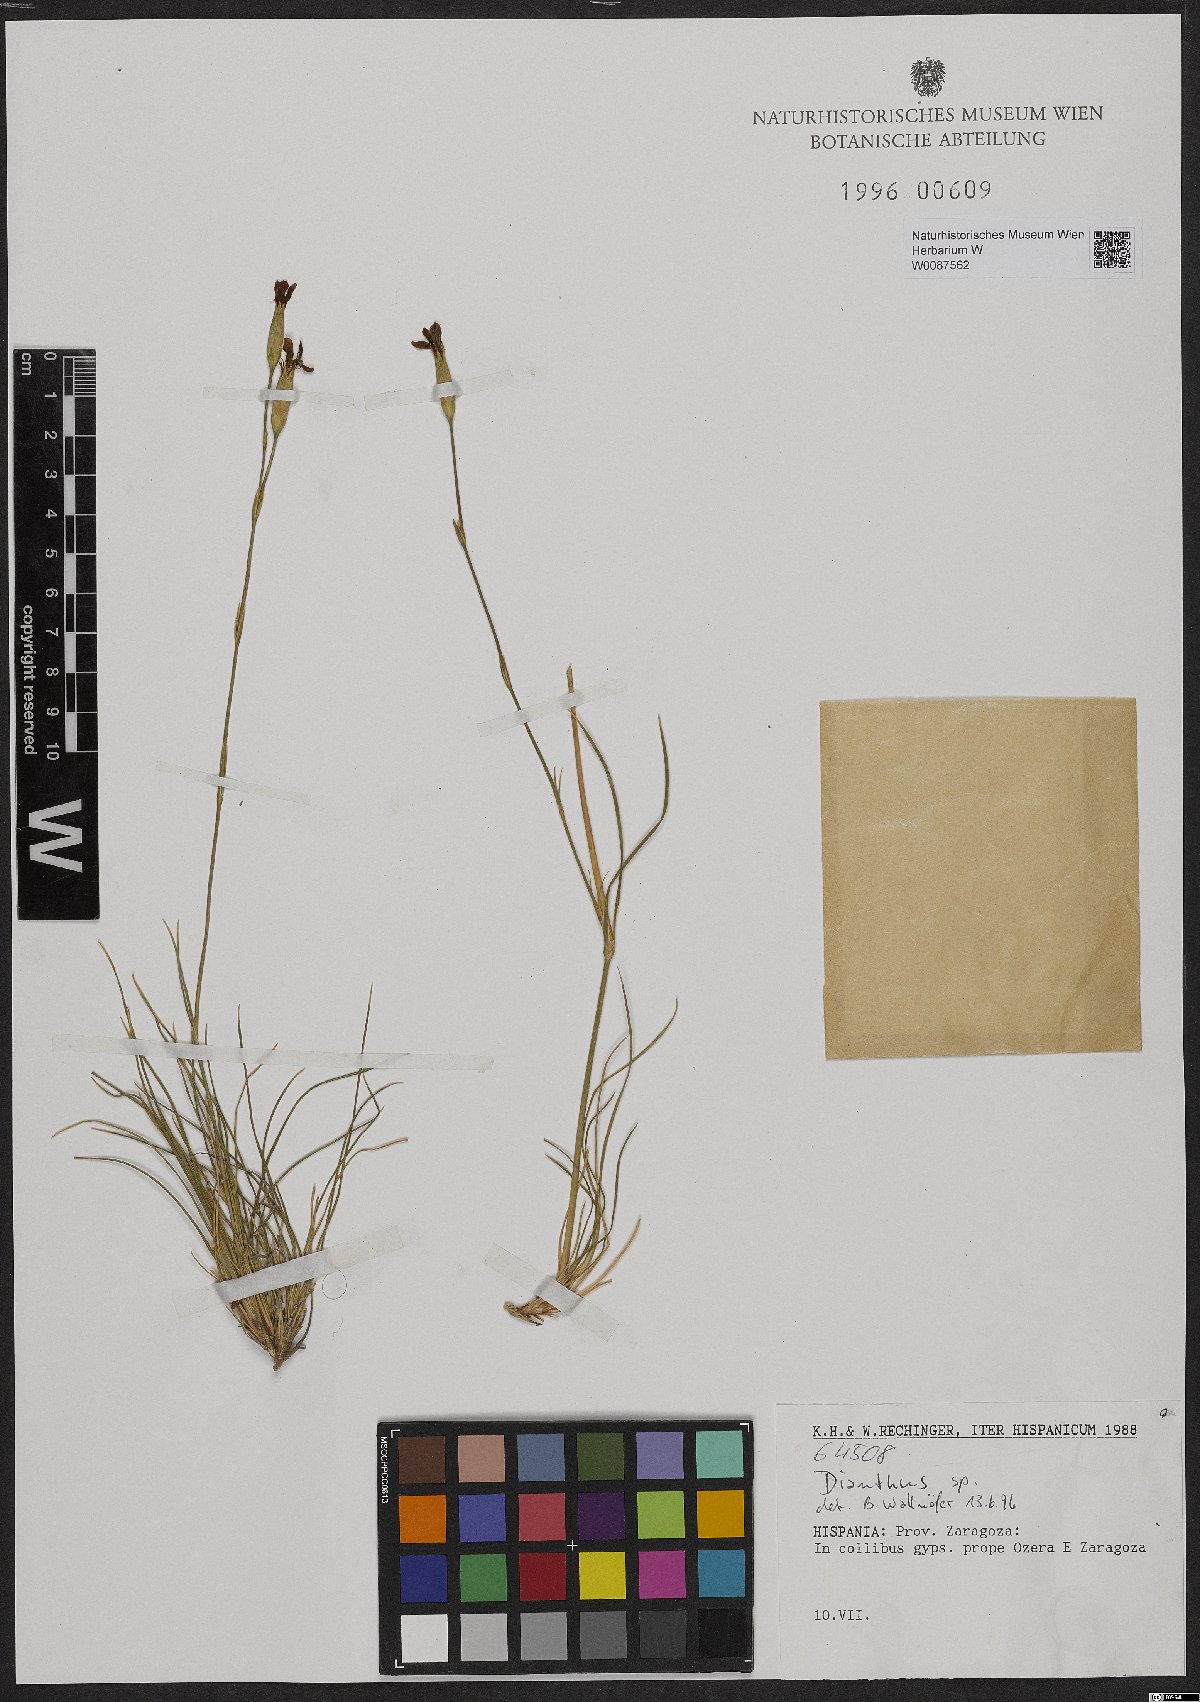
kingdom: Plantae
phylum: Tracheophyta
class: Magnoliopsida
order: Caryophyllales
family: Caryophyllaceae
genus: Dianthus
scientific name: Dianthus
